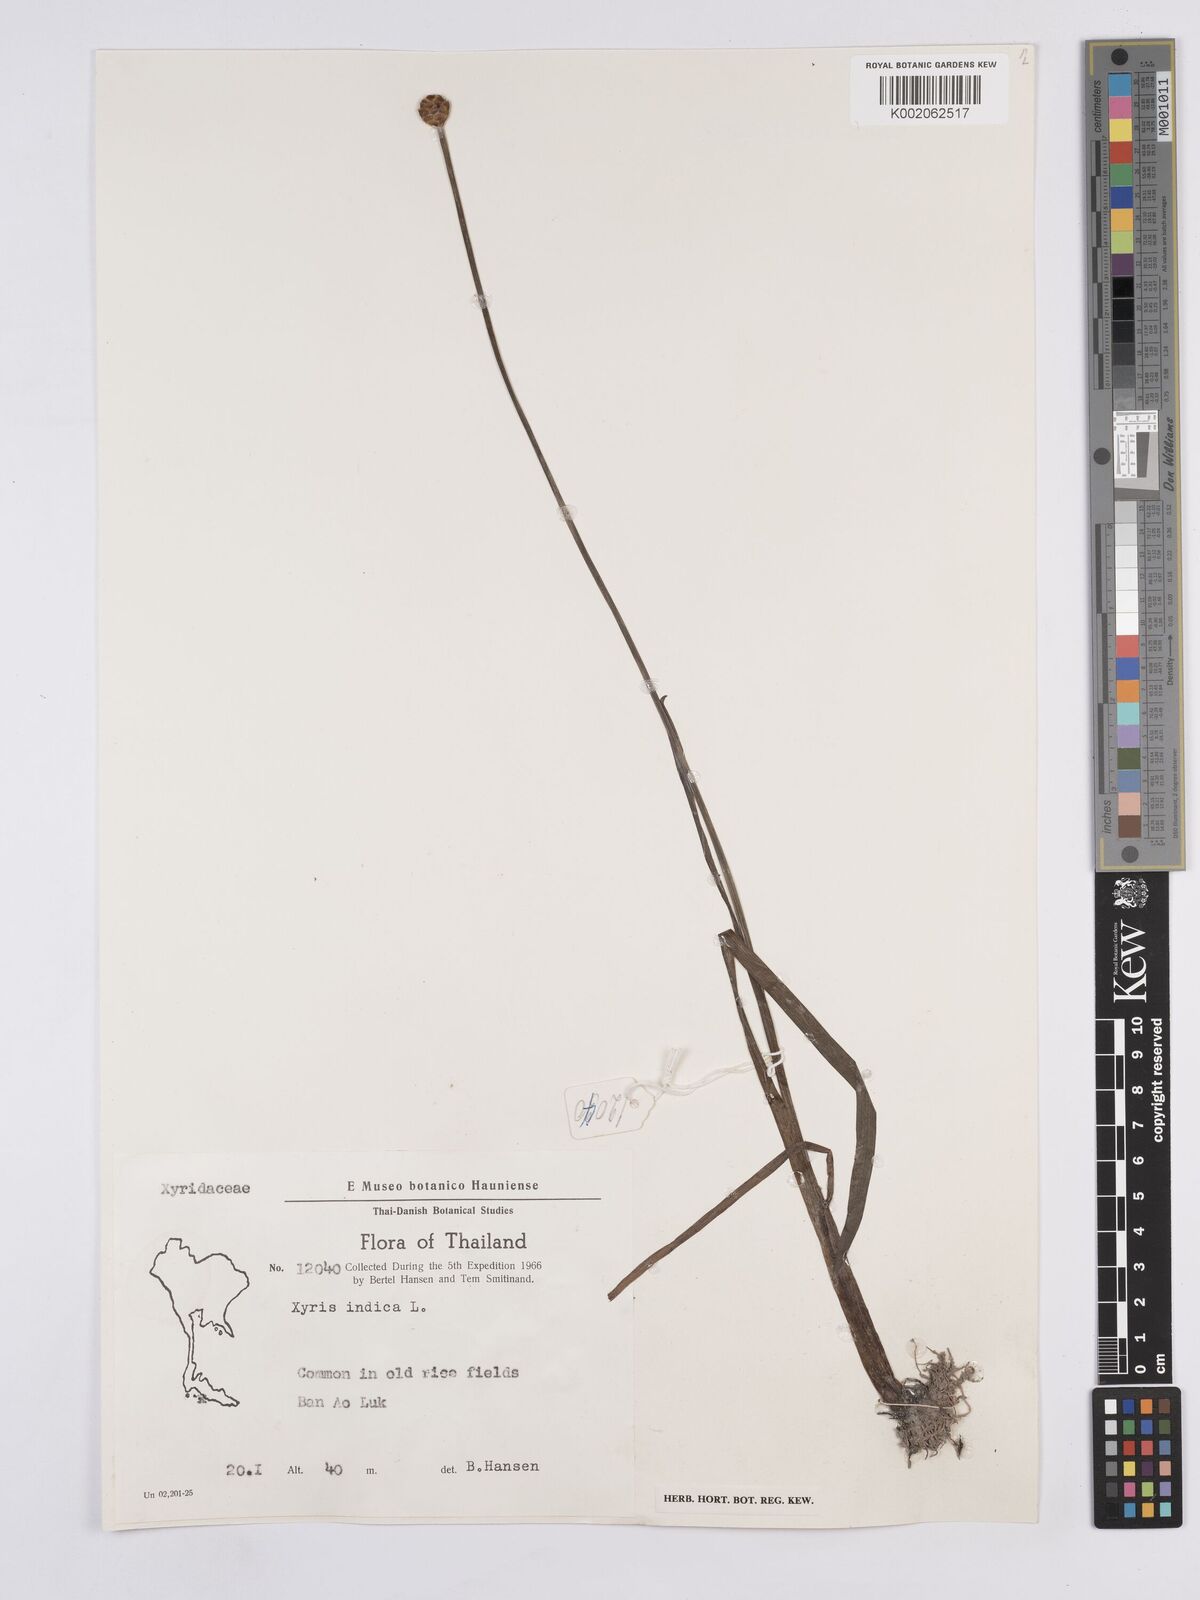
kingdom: Plantae
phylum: Tracheophyta
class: Liliopsida
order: Poales
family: Xyridaceae
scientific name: Xyridaceae
